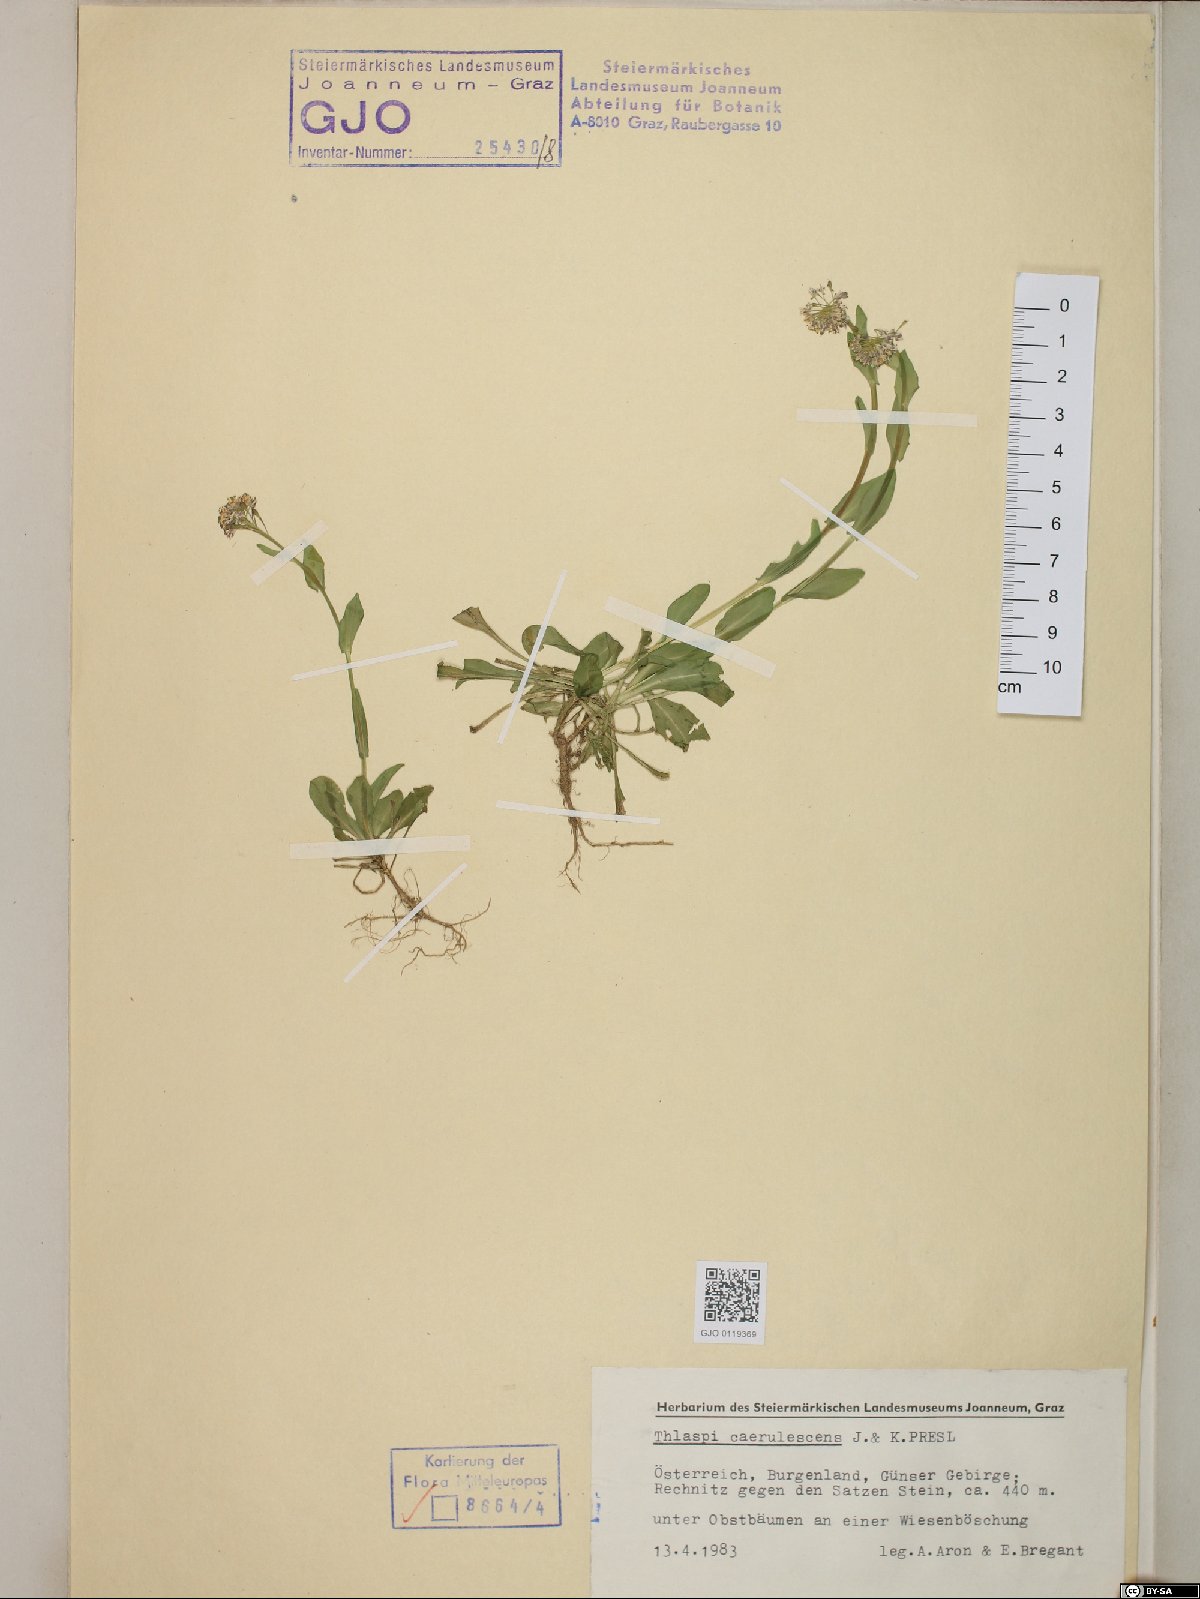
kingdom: Plantae
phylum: Tracheophyta
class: Magnoliopsida
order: Brassicales
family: Brassicaceae
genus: Noccaea
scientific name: Noccaea caerulescens
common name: Alpine pennycress
